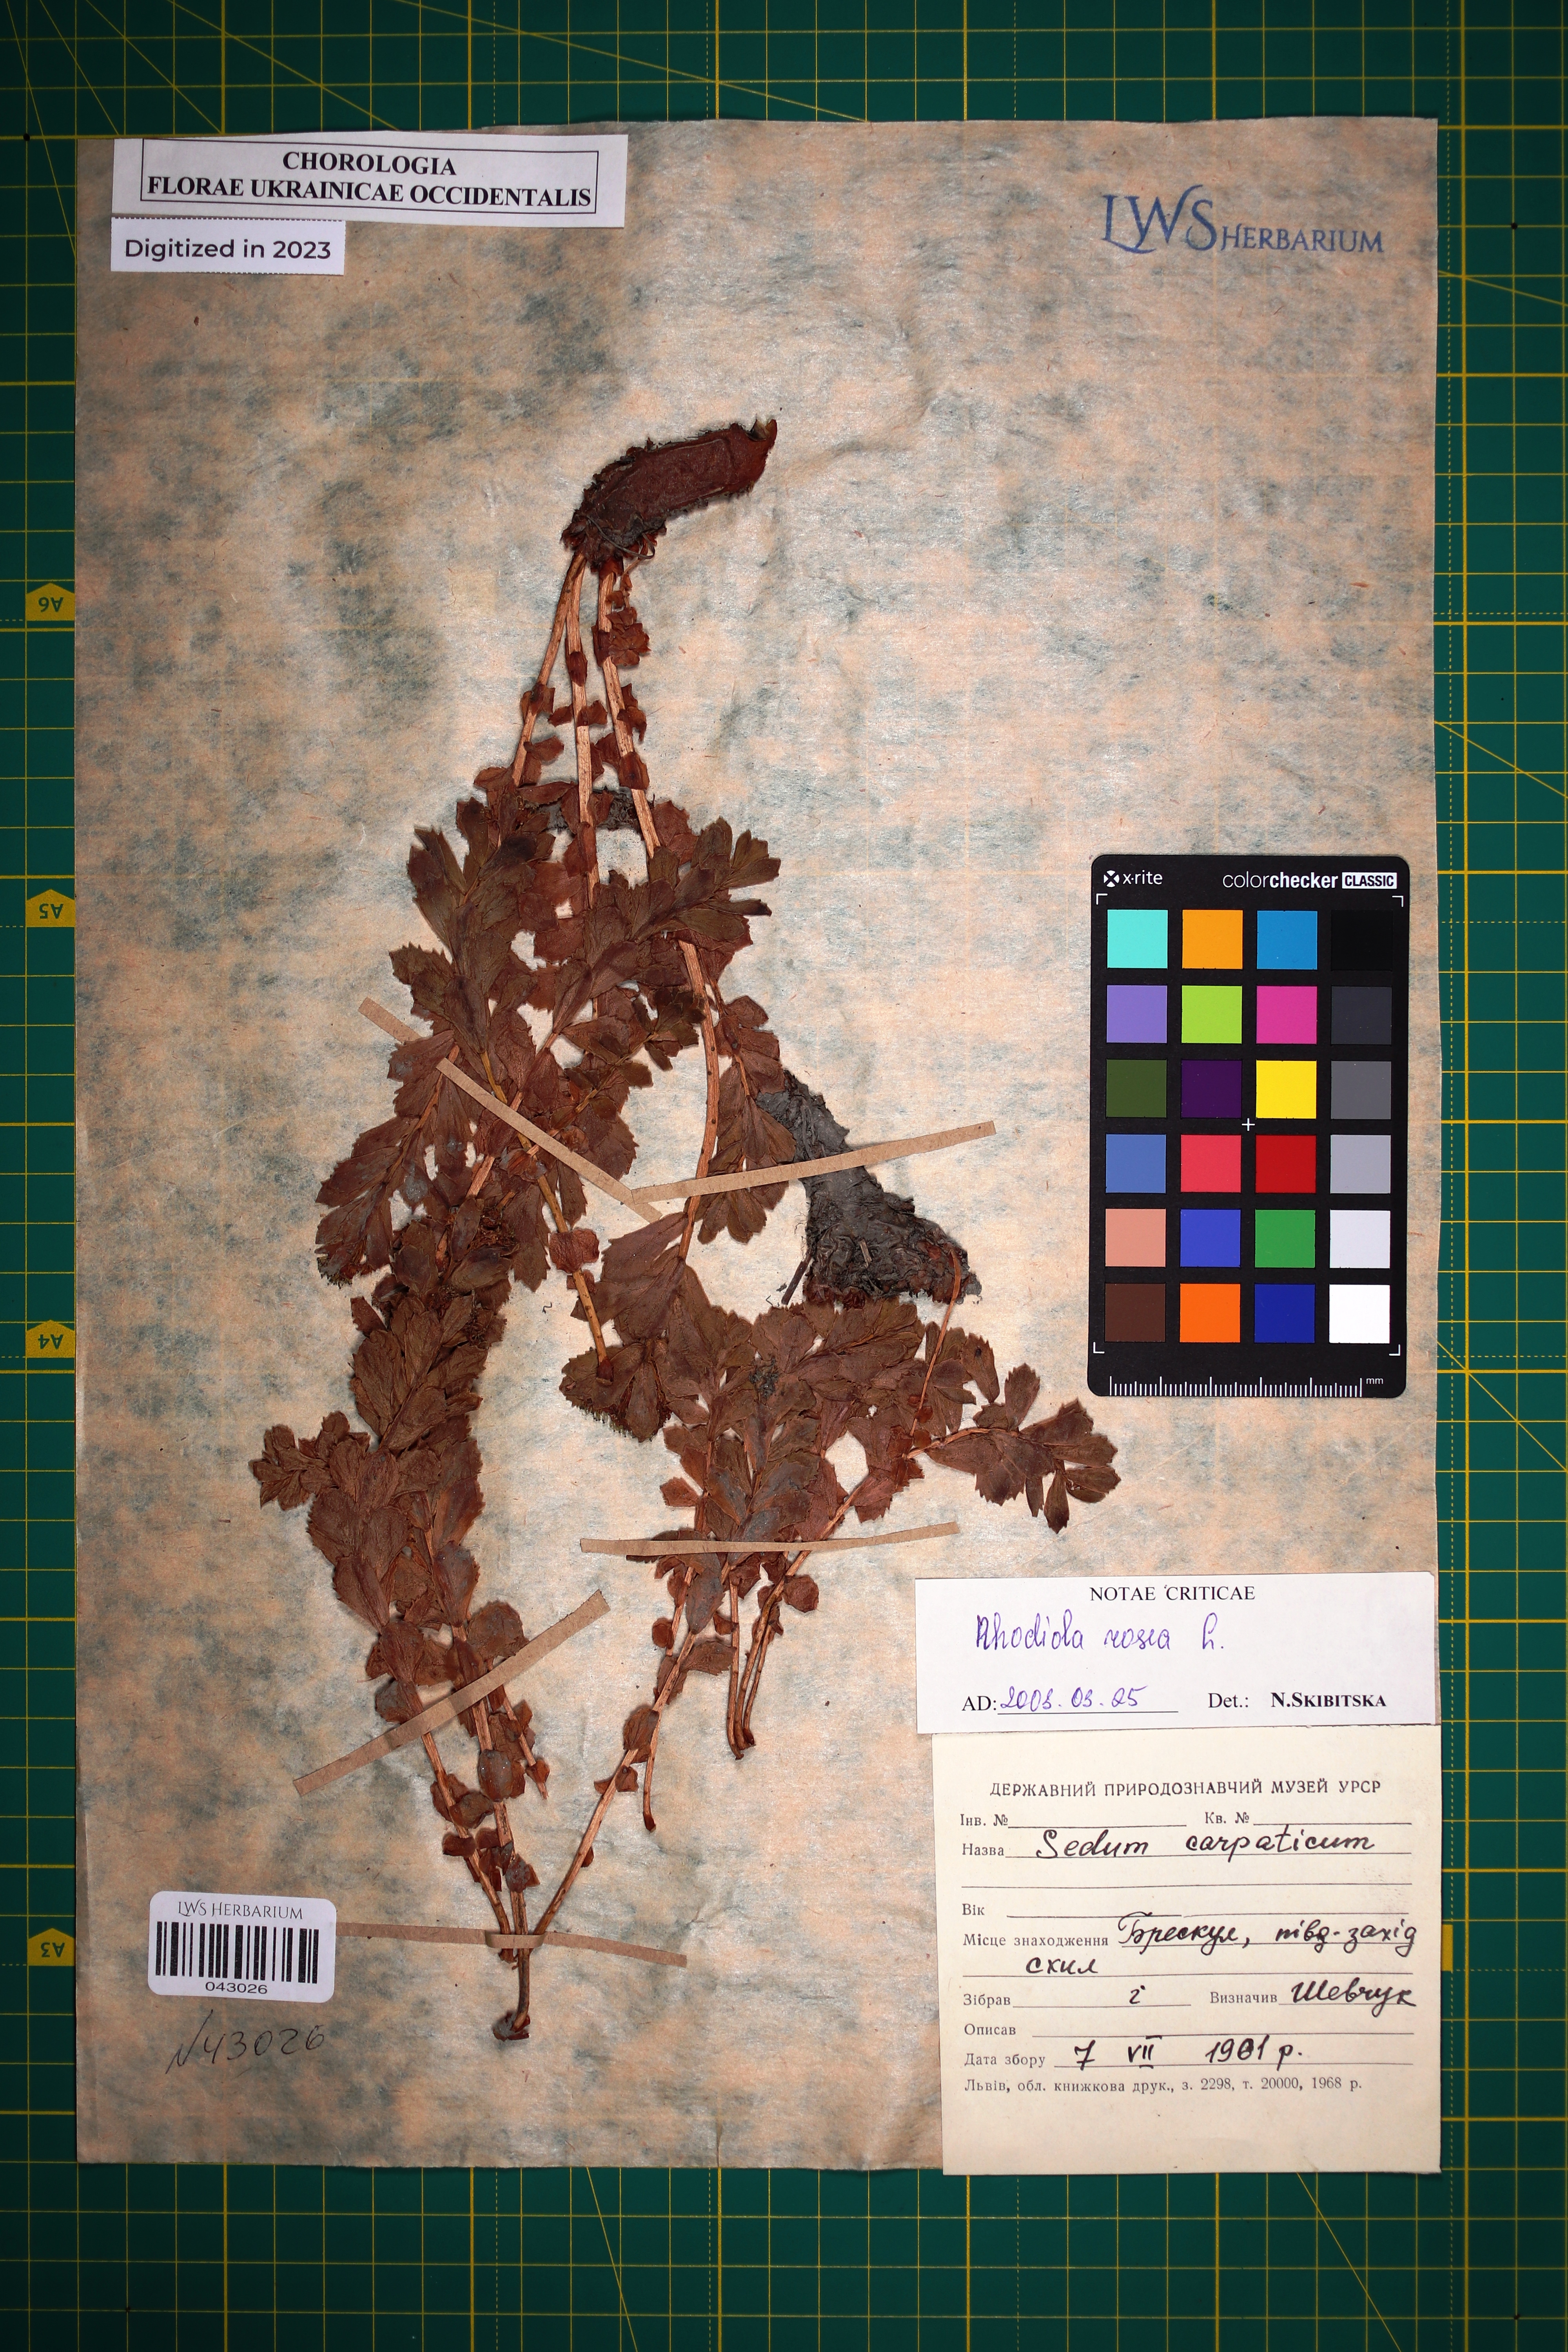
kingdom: Plantae
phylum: Tracheophyta
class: Magnoliopsida
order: Saxifragales
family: Crassulaceae
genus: Rhodiola
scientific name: Rhodiola rosea
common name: Roseroot
